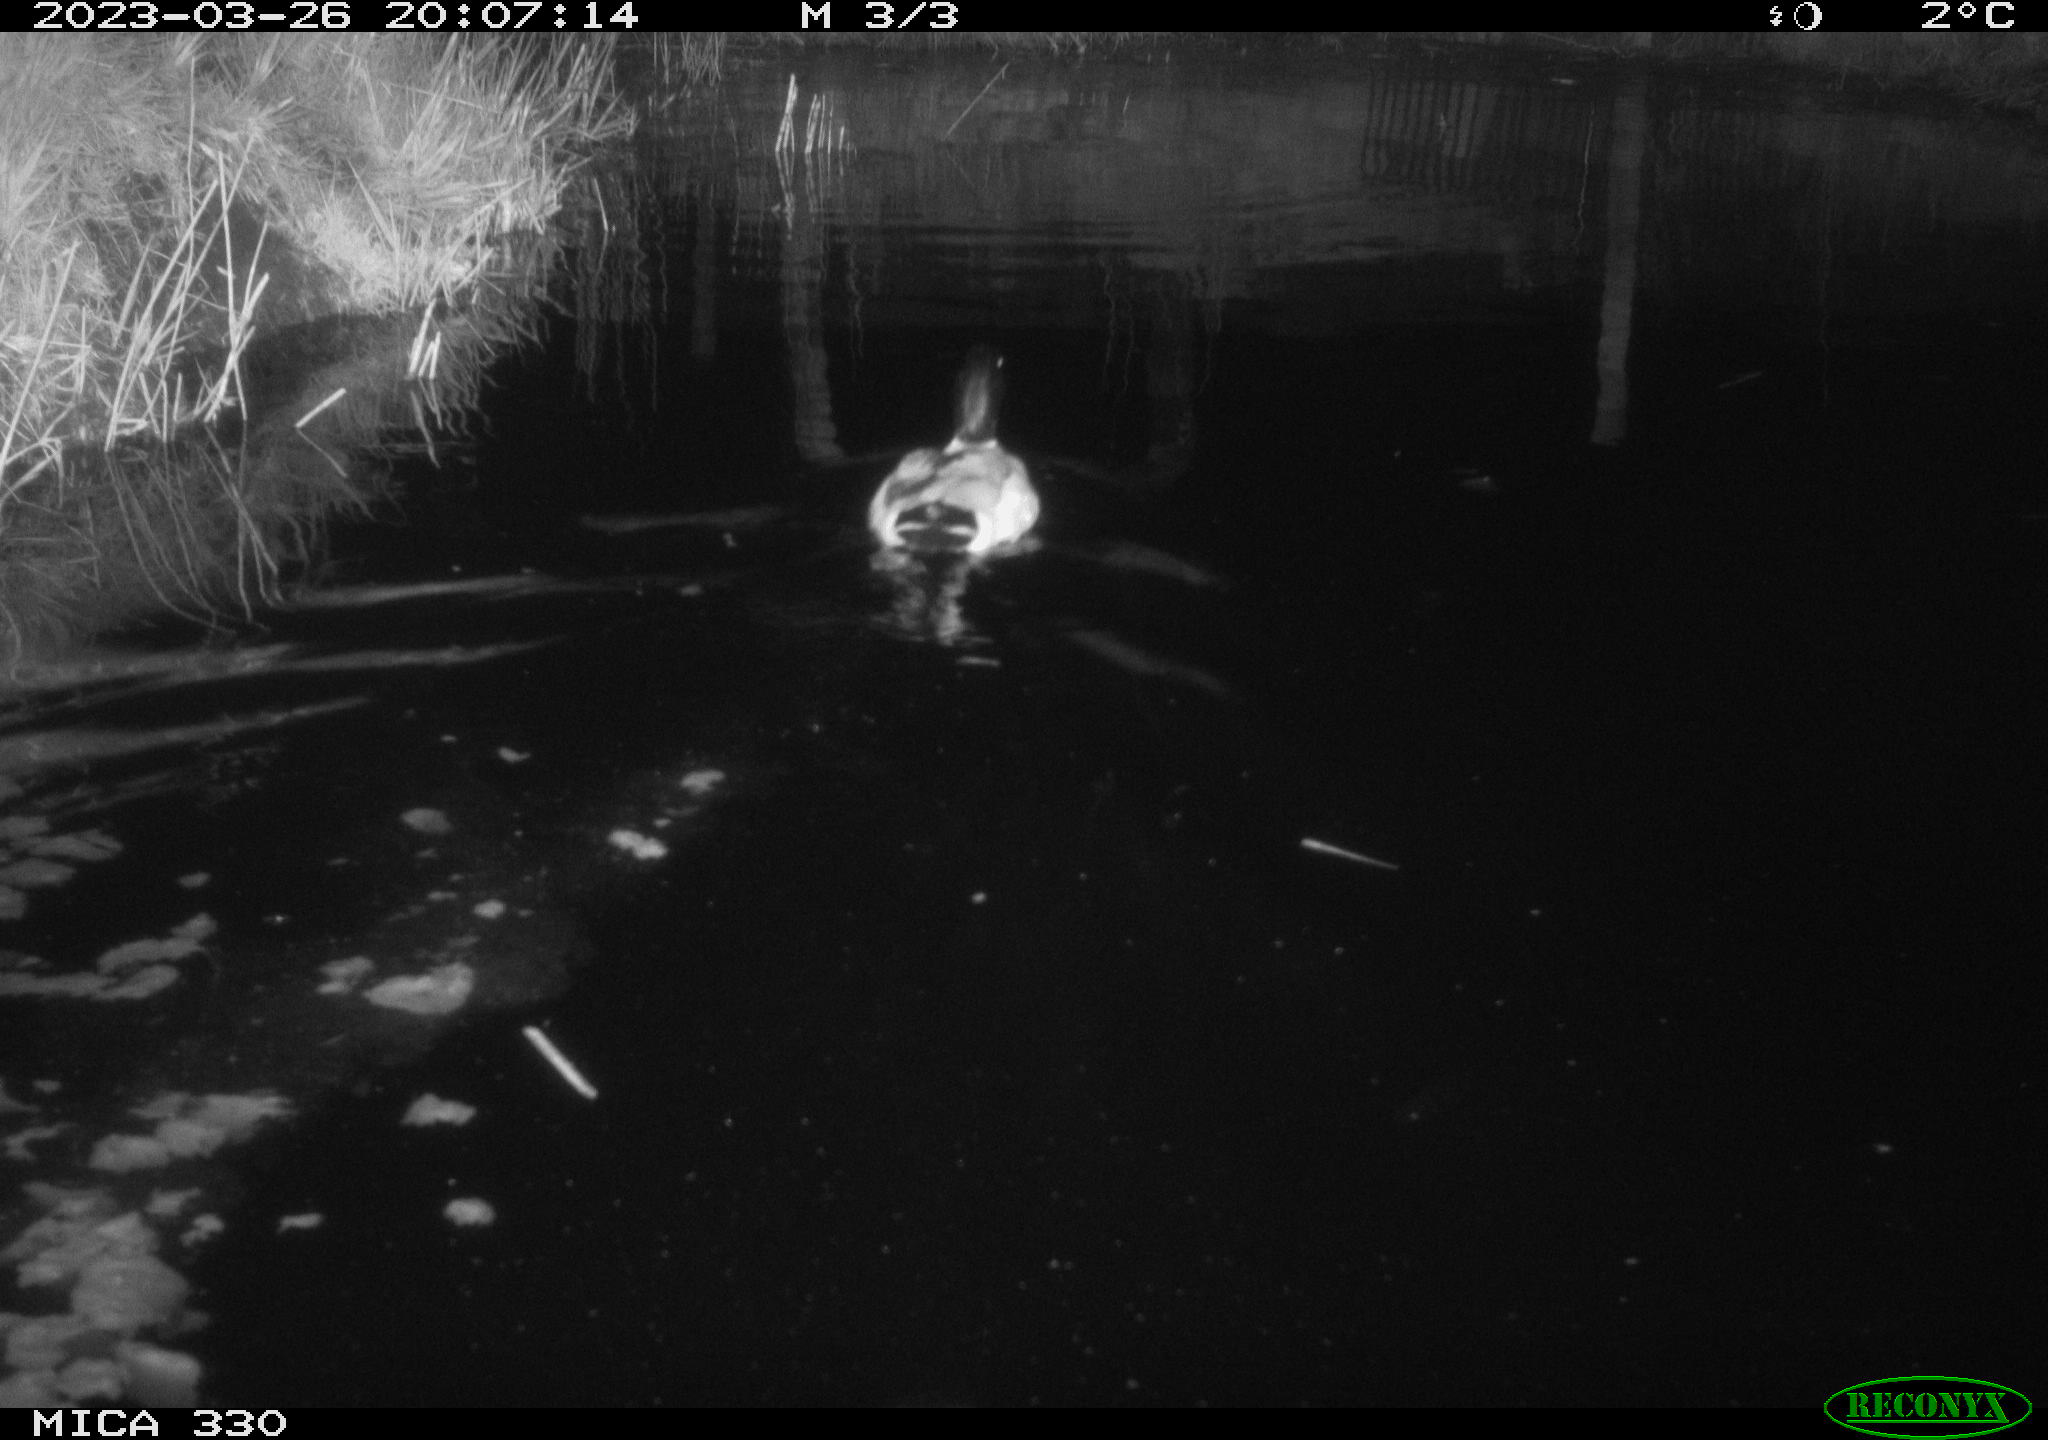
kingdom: Animalia
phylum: Chordata
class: Aves
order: Anseriformes
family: Anatidae
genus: Anas
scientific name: Anas
